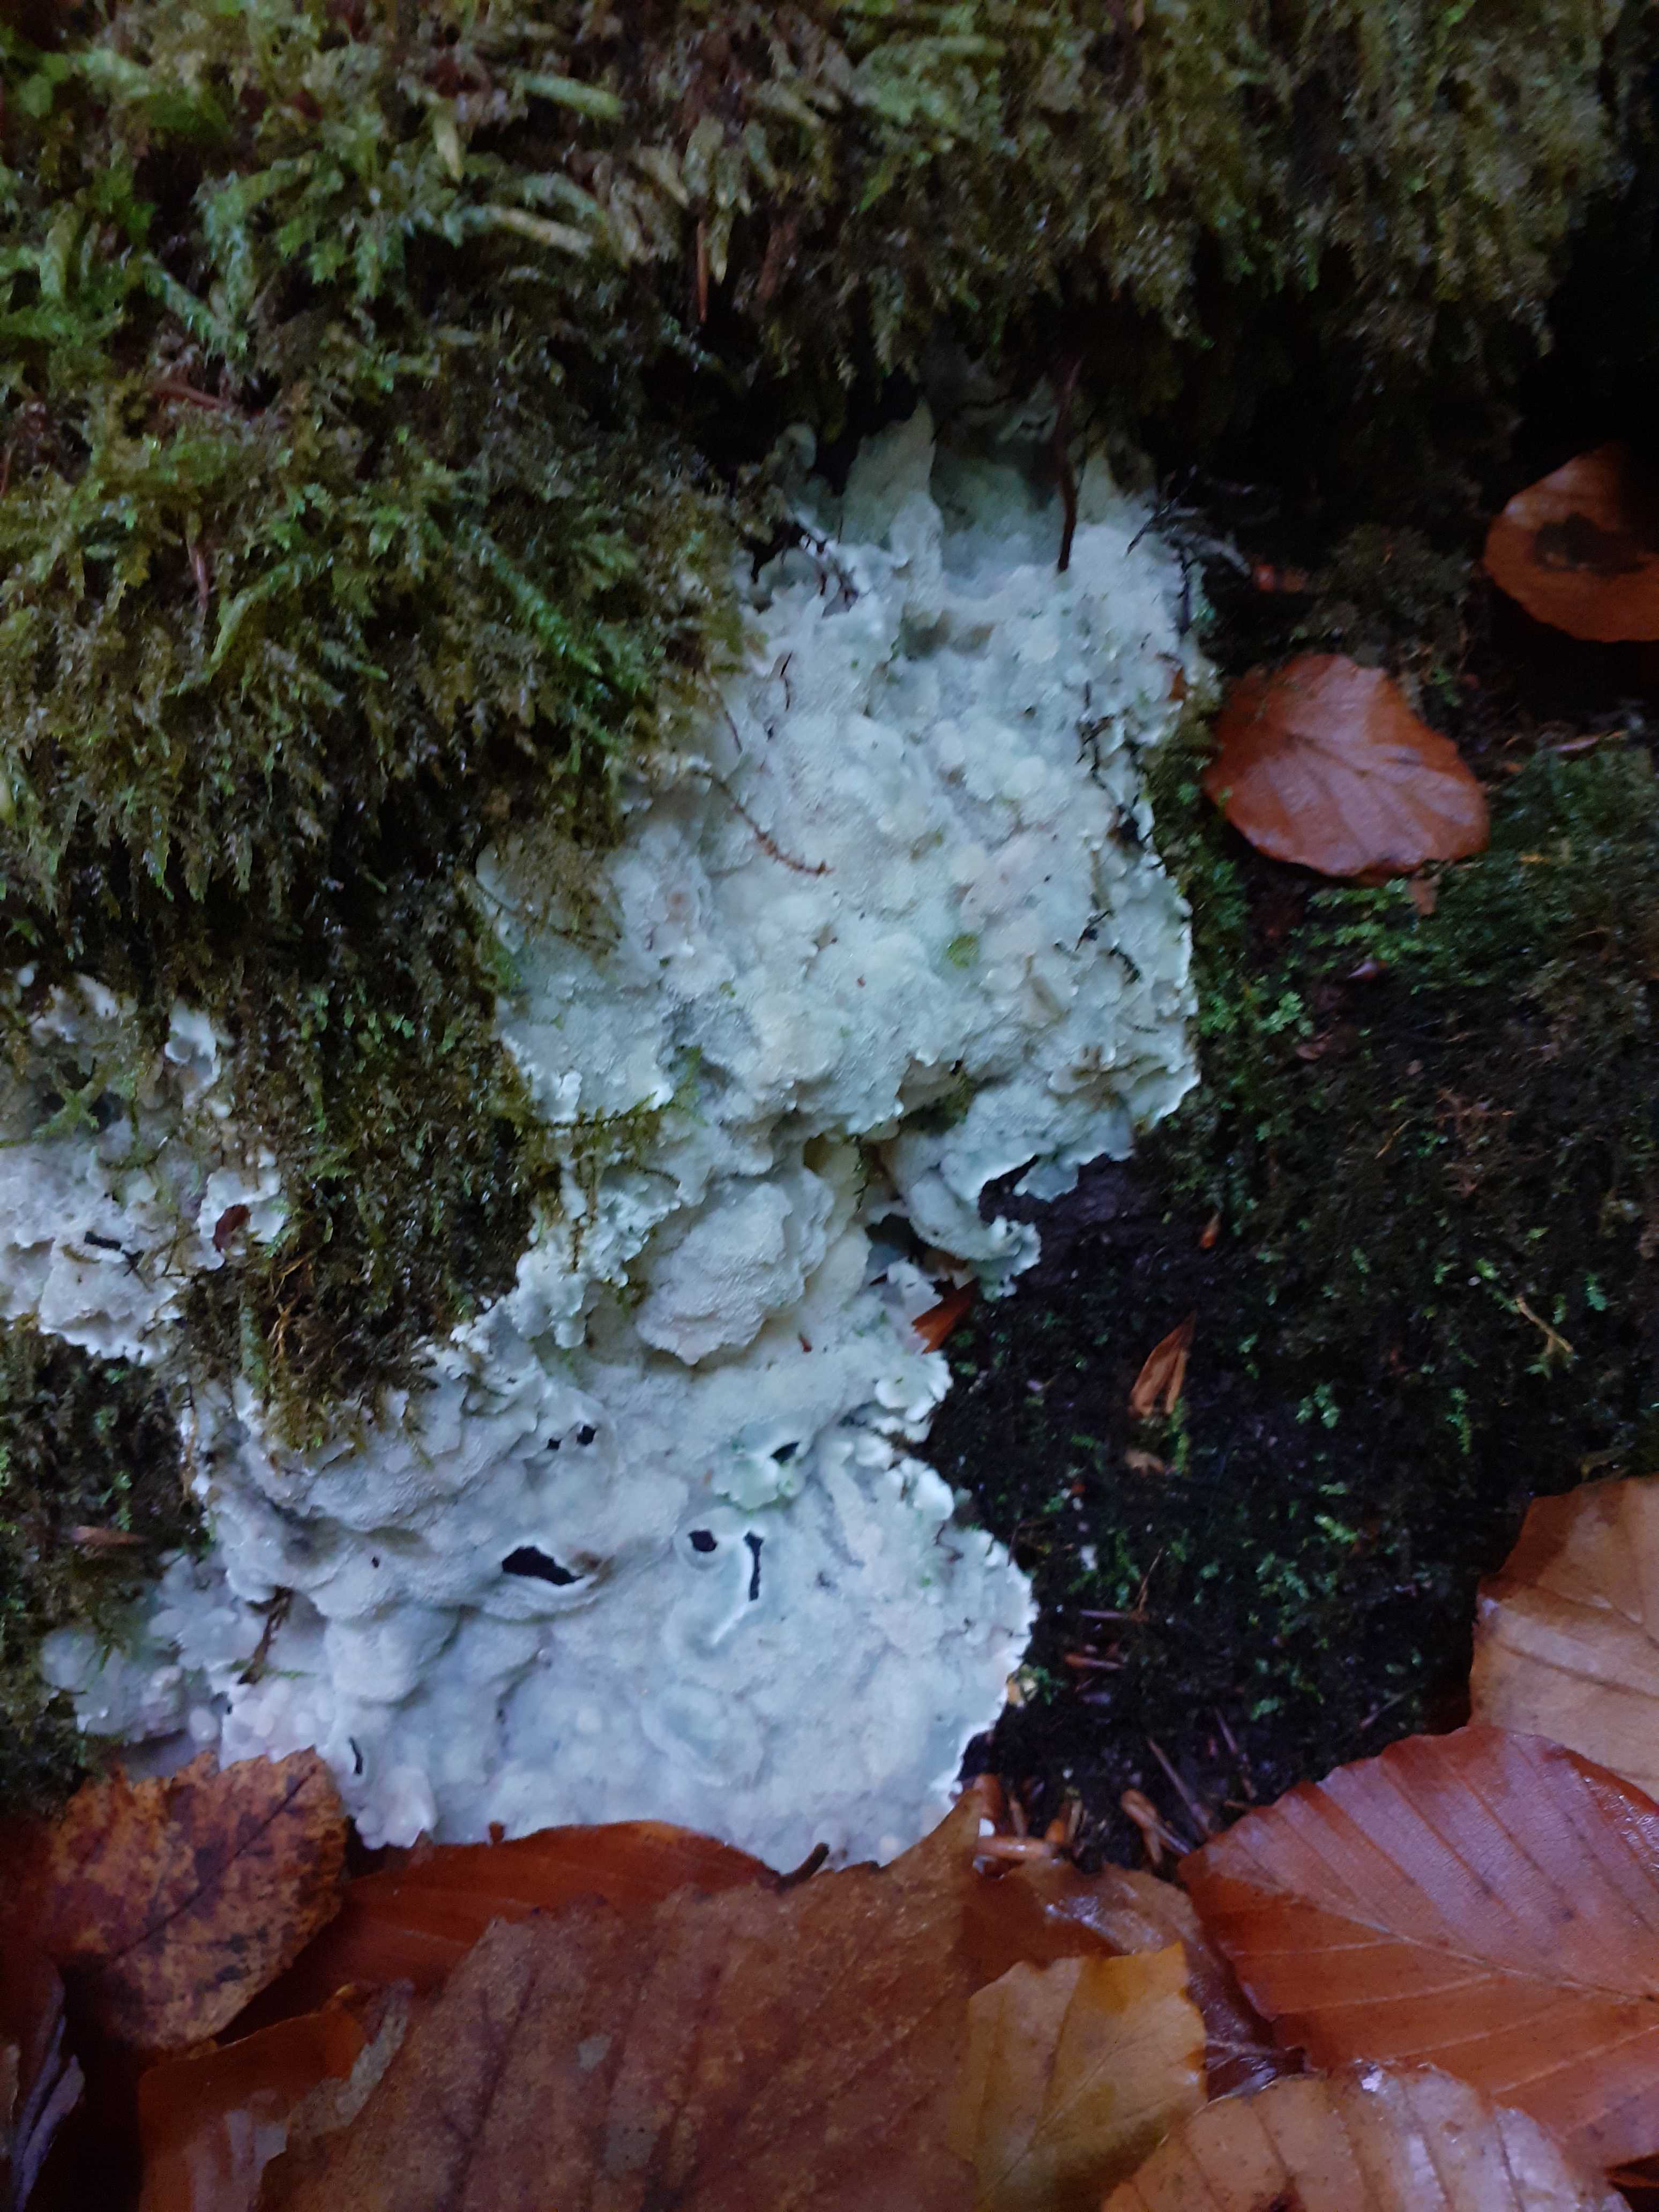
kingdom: Fungi
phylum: Basidiomycota
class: Agaricomycetes
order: Polyporales
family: Meruliaceae
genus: Physisporinus
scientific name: Physisporinus vitreus
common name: mastesvamp
